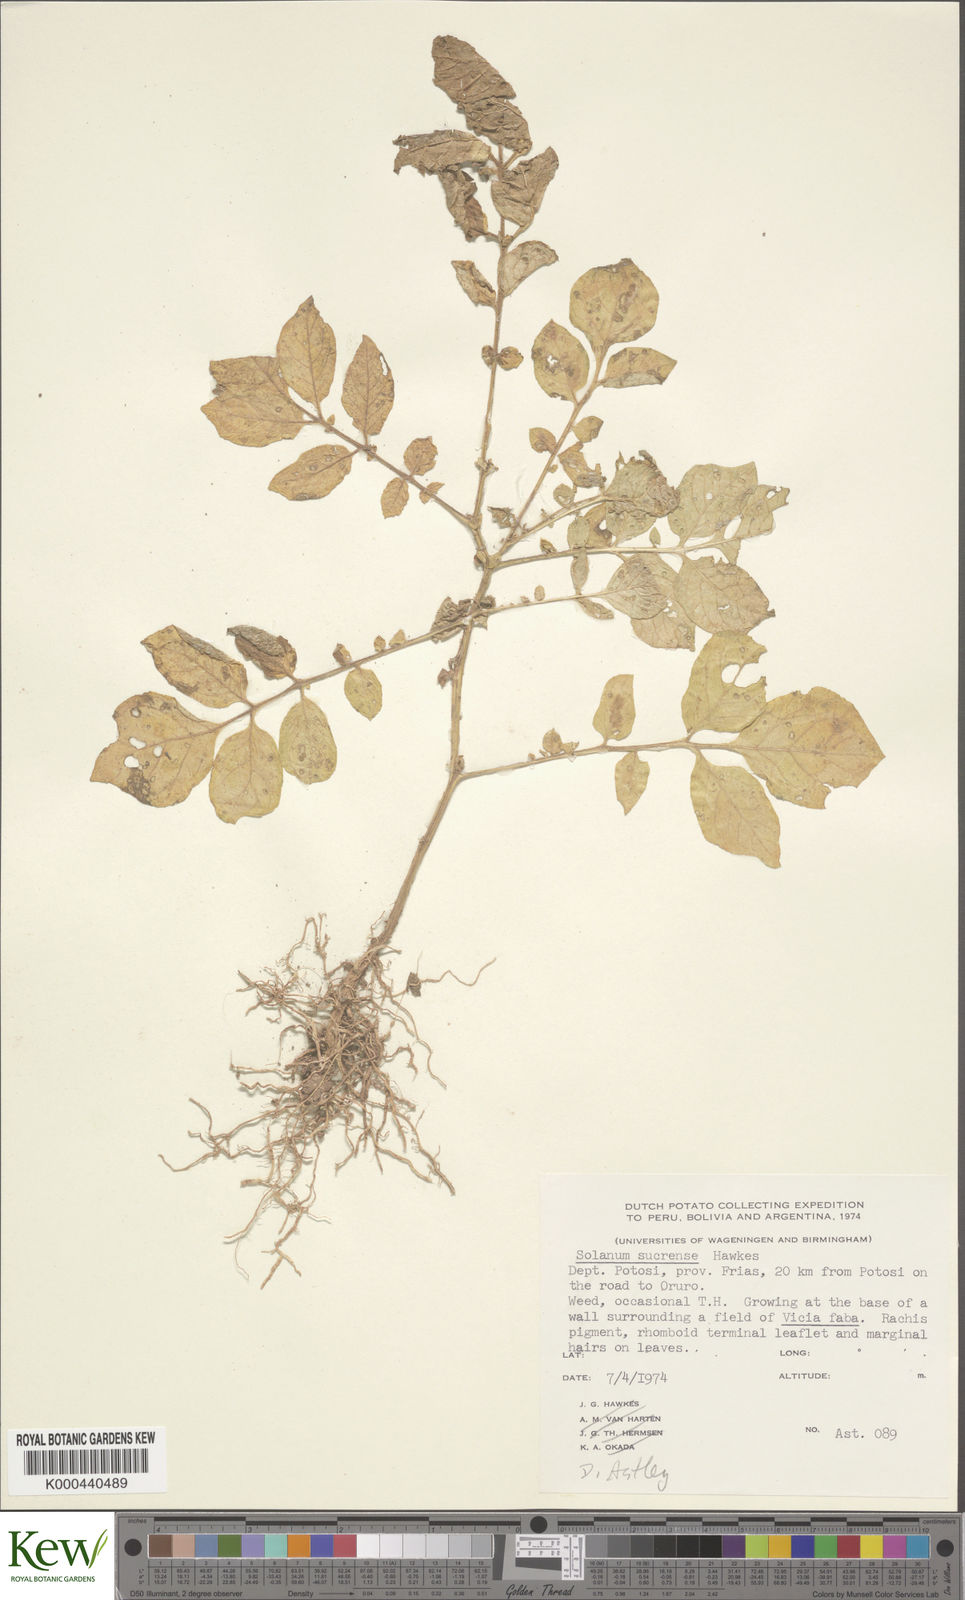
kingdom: Plantae
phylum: Tracheophyta
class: Magnoliopsida
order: Solanales
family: Solanaceae
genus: Solanum
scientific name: Solanum brevicaule
